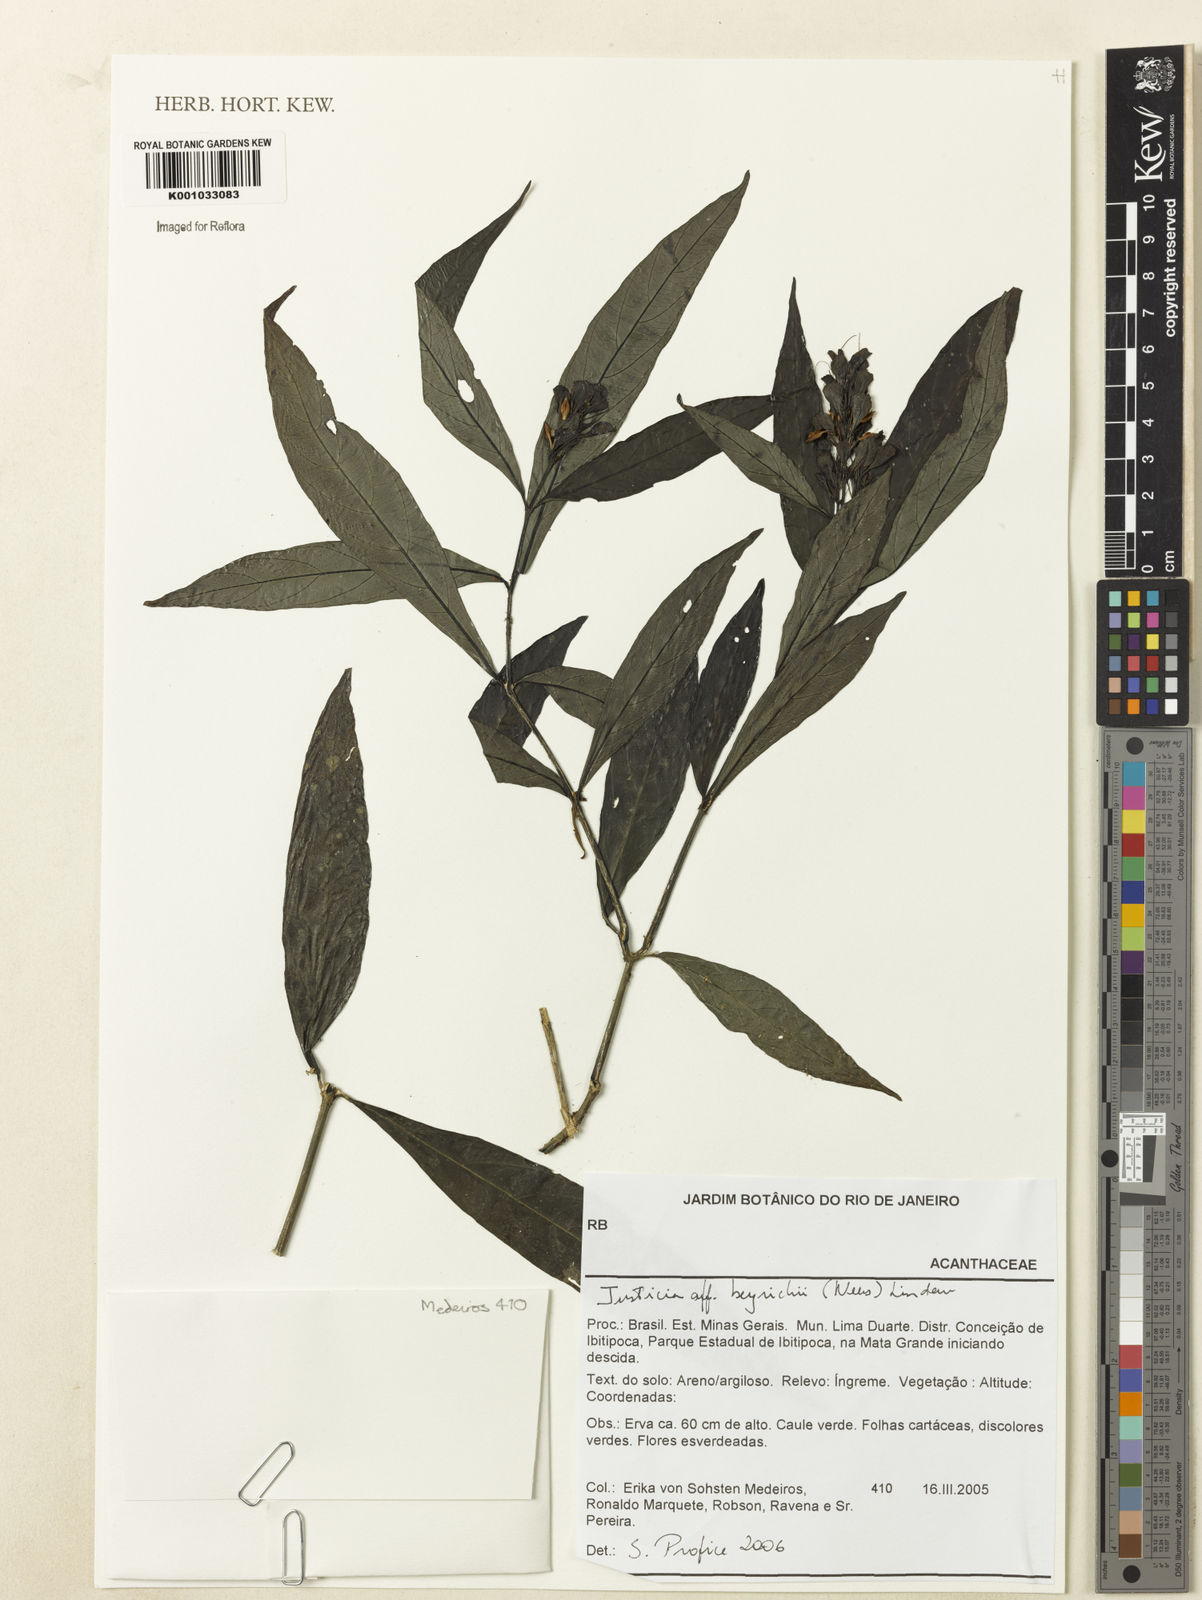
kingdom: Plantae
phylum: Tracheophyta
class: Magnoliopsida
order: Lamiales
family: Acanthaceae
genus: Dianthera
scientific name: Dianthera brasiliensis
